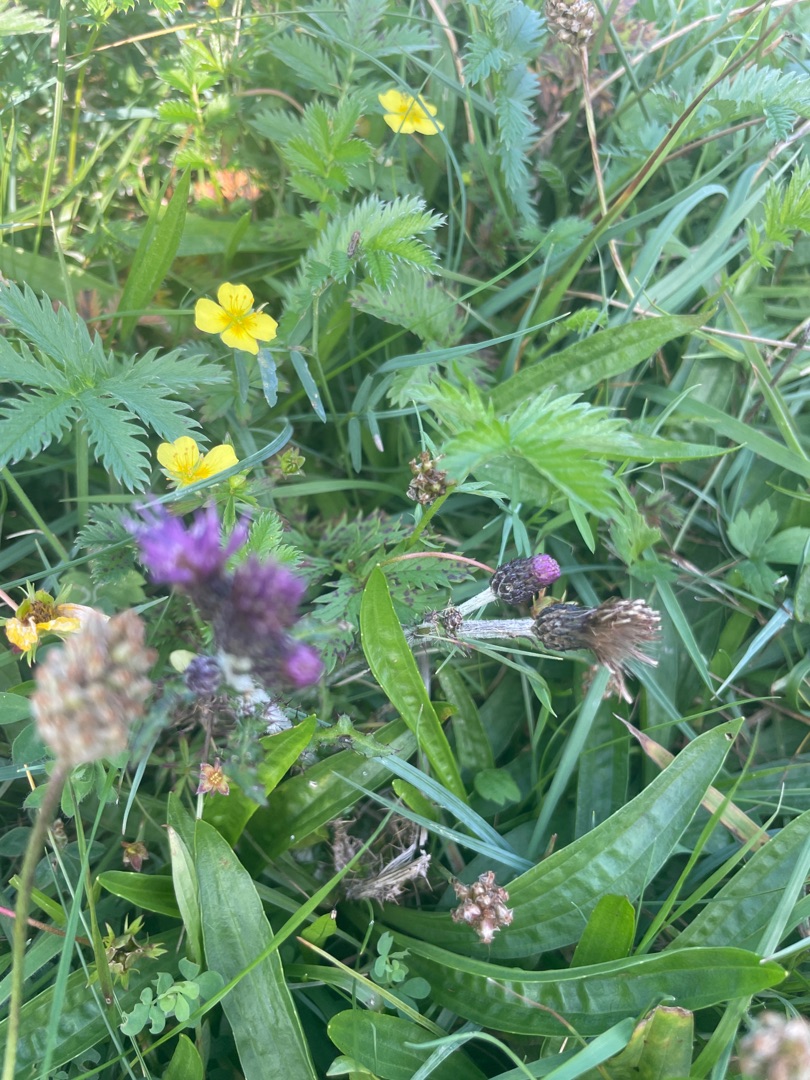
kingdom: Plantae
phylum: Tracheophyta
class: Magnoliopsida
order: Asterales
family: Asteraceae
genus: Cirsium
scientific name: Cirsium palustre
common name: Kær-tidsel
